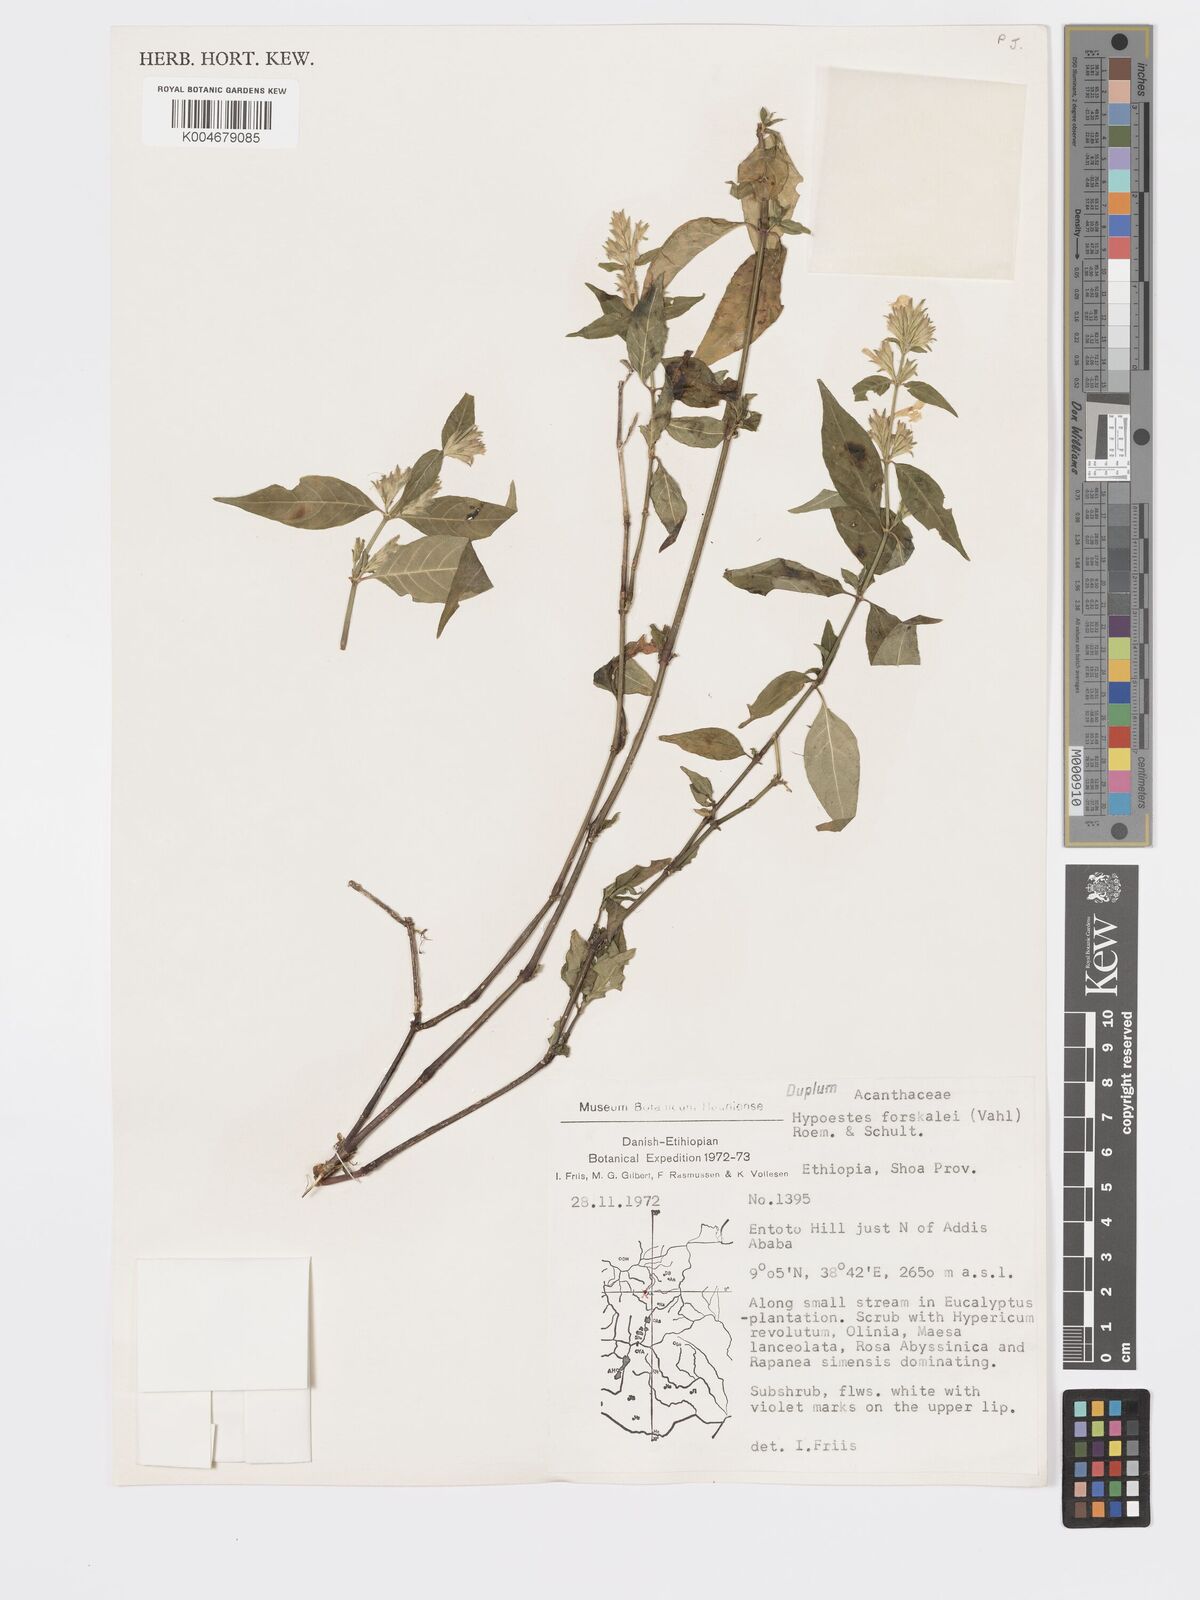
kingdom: Plantae
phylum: Tracheophyta
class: Magnoliopsida
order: Lamiales
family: Acanthaceae
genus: Hypoestes
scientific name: Hypoestes forskaolii
